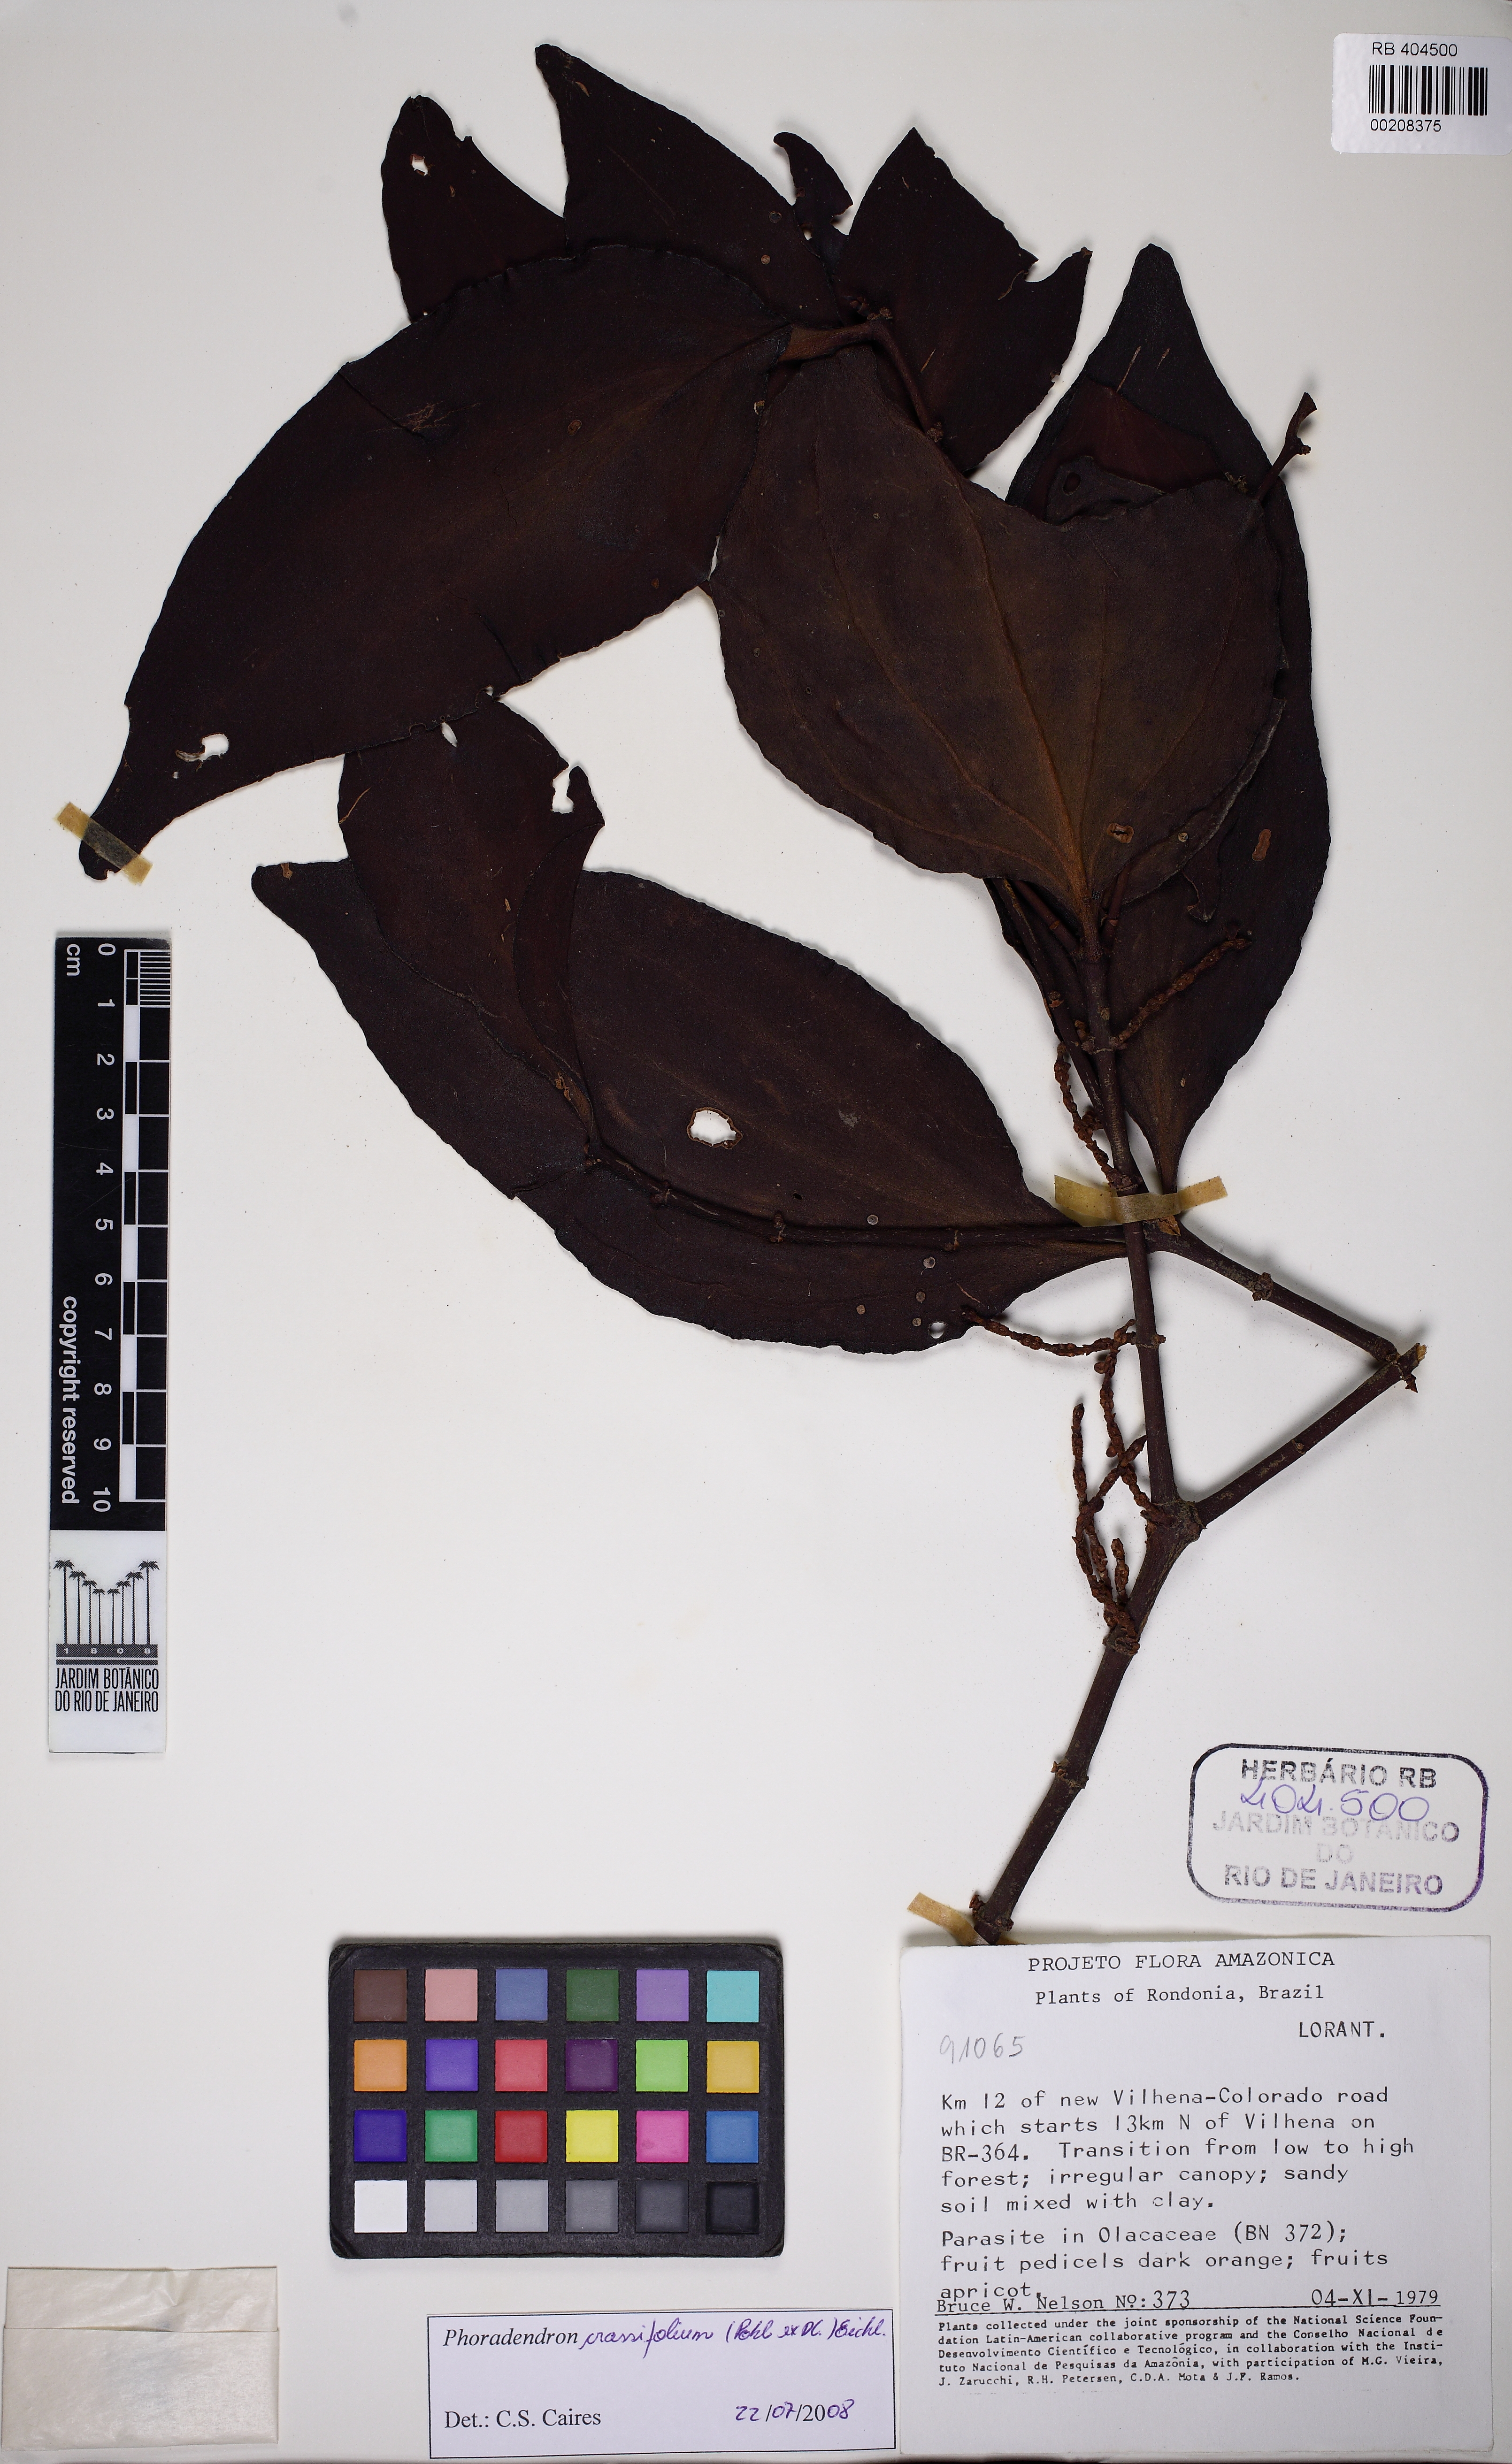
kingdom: Plantae
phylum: Tracheophyta
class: Magnoliopsida
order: Santalales
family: Viscaceae
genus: Phoradendron
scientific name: Phoradendron crassifolium
